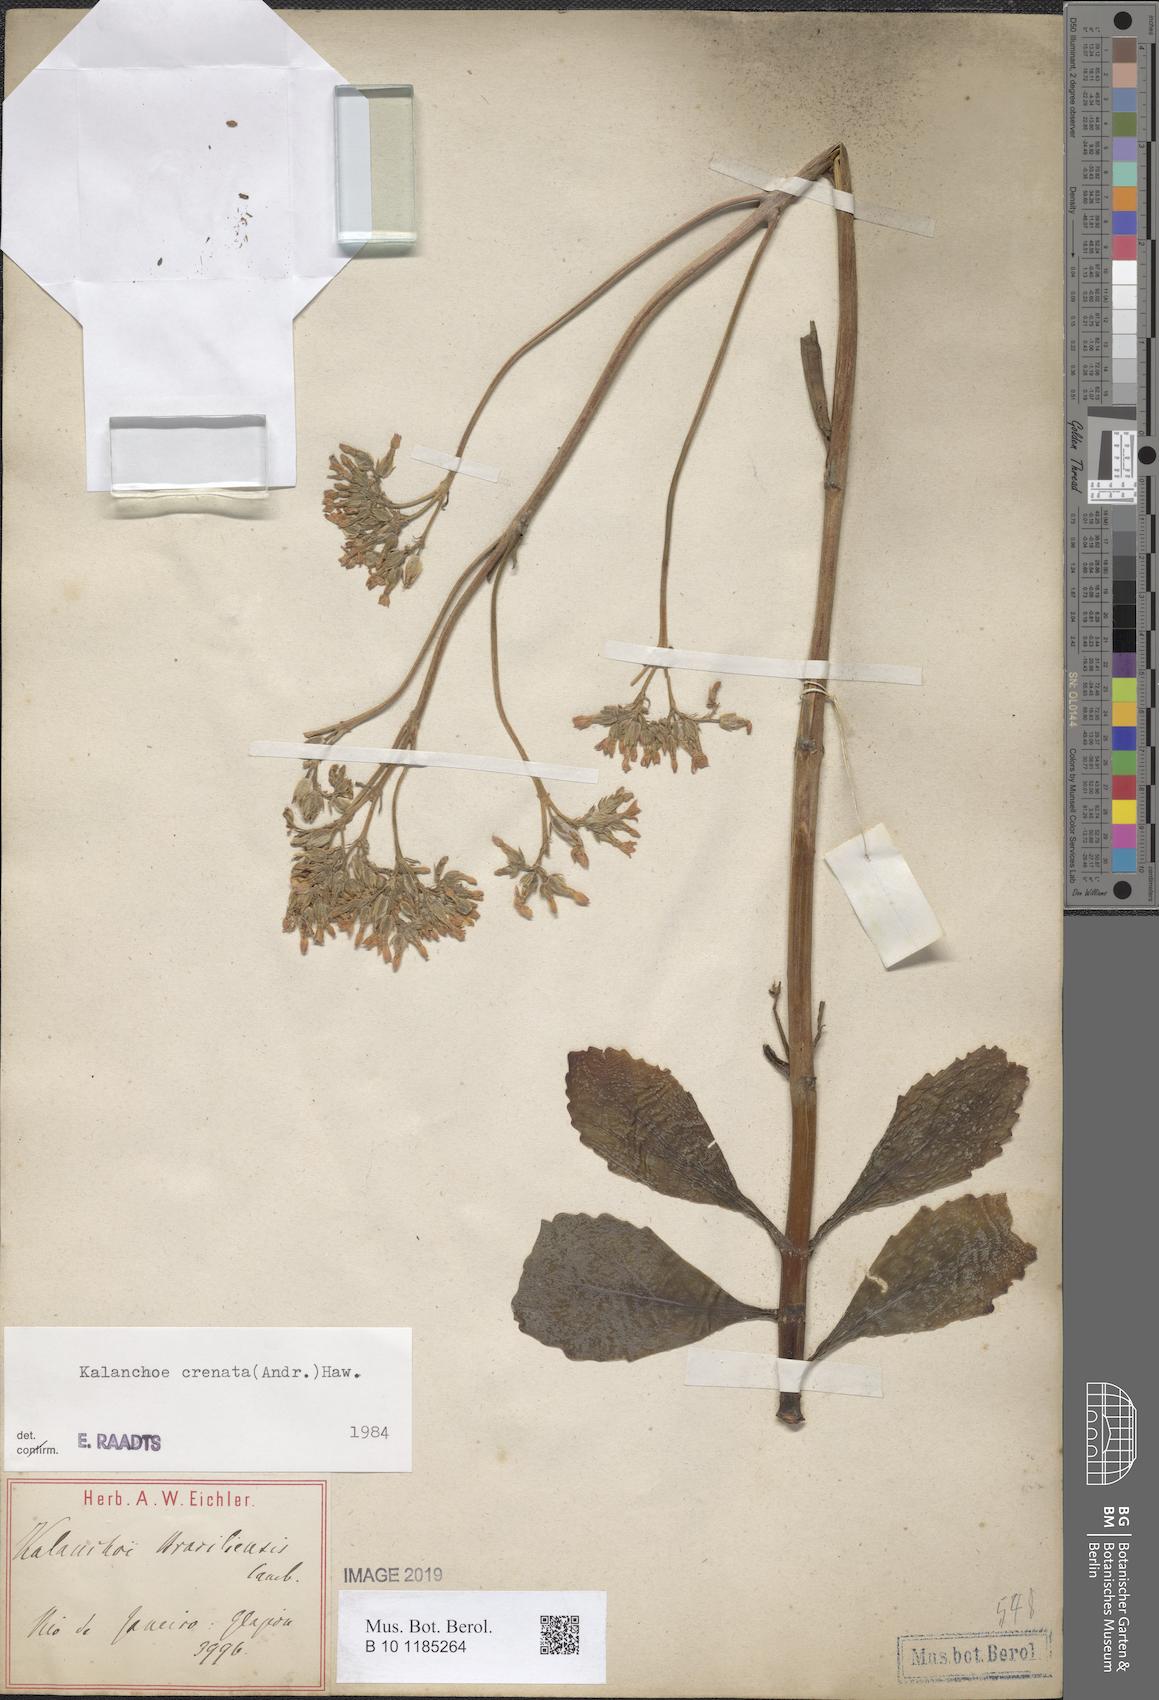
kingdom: Plantae
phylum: Tracheophyta
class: Magnoliopsida
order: Saxifragales
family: Crassulaceae
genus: Kalanchoe
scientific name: Kalanchoe crenata
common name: Neverdie
